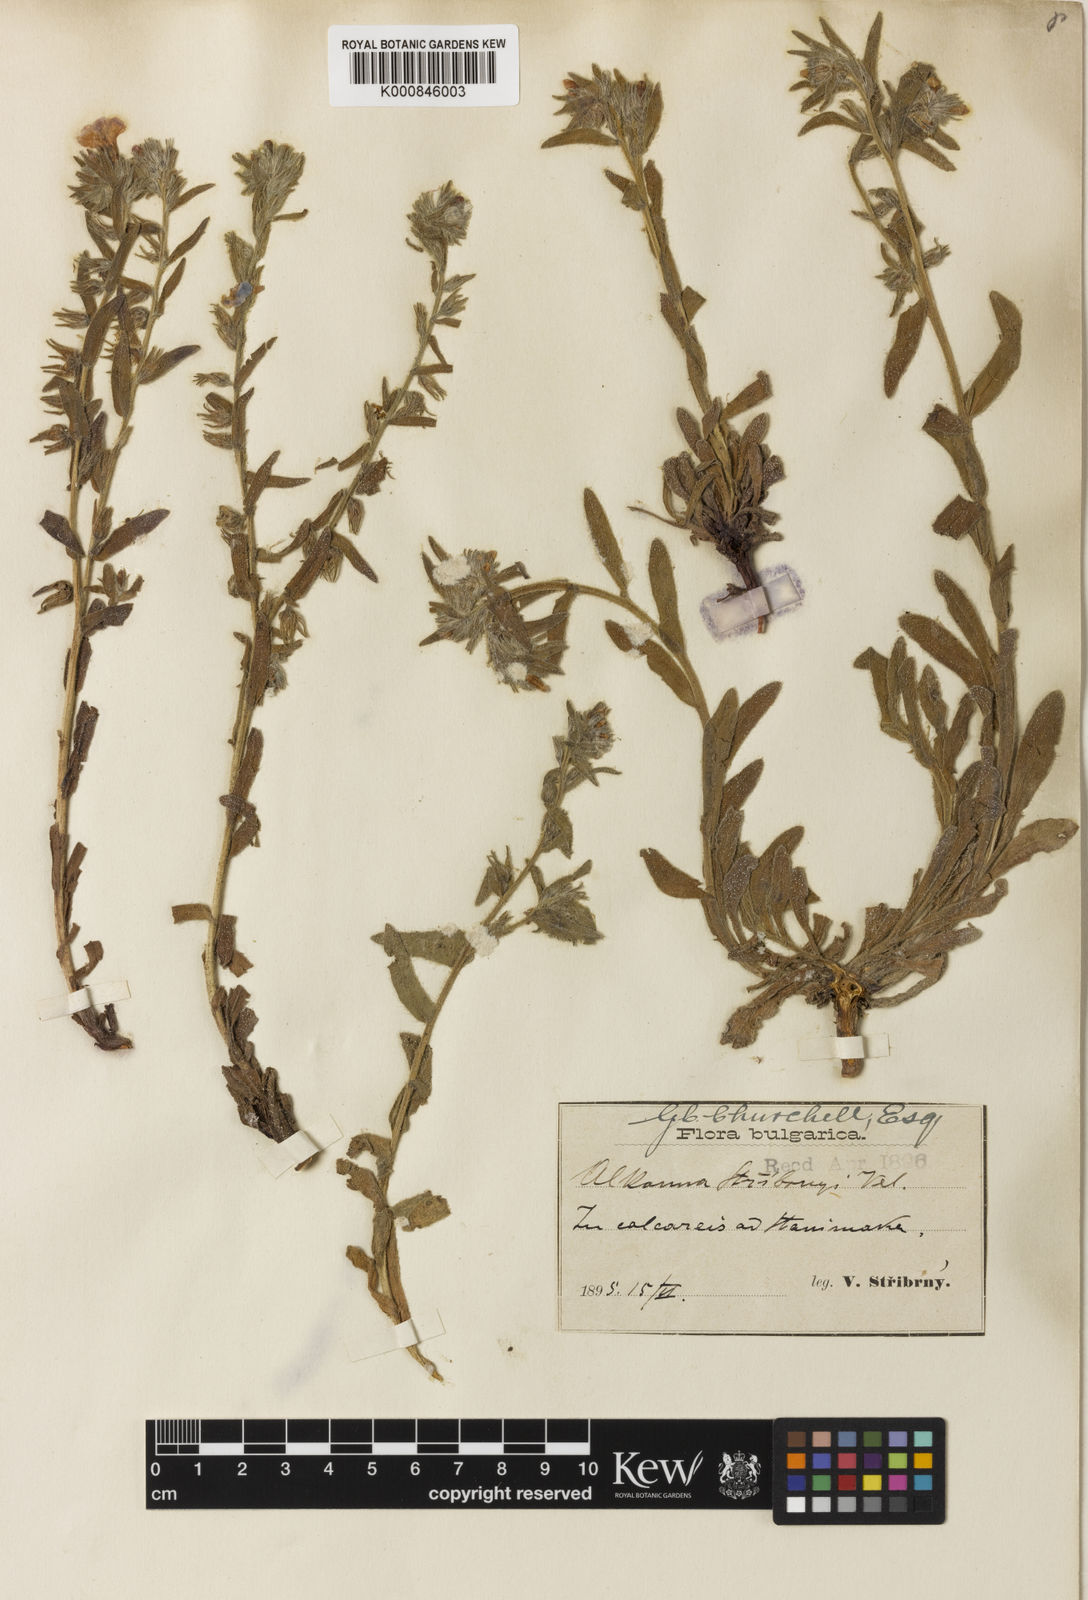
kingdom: Plantae
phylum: Tracheophyta
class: Magnoliopsida
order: Boraginales
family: Boraginaceae
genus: Alkanna
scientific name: Alkanna stribrnyi
